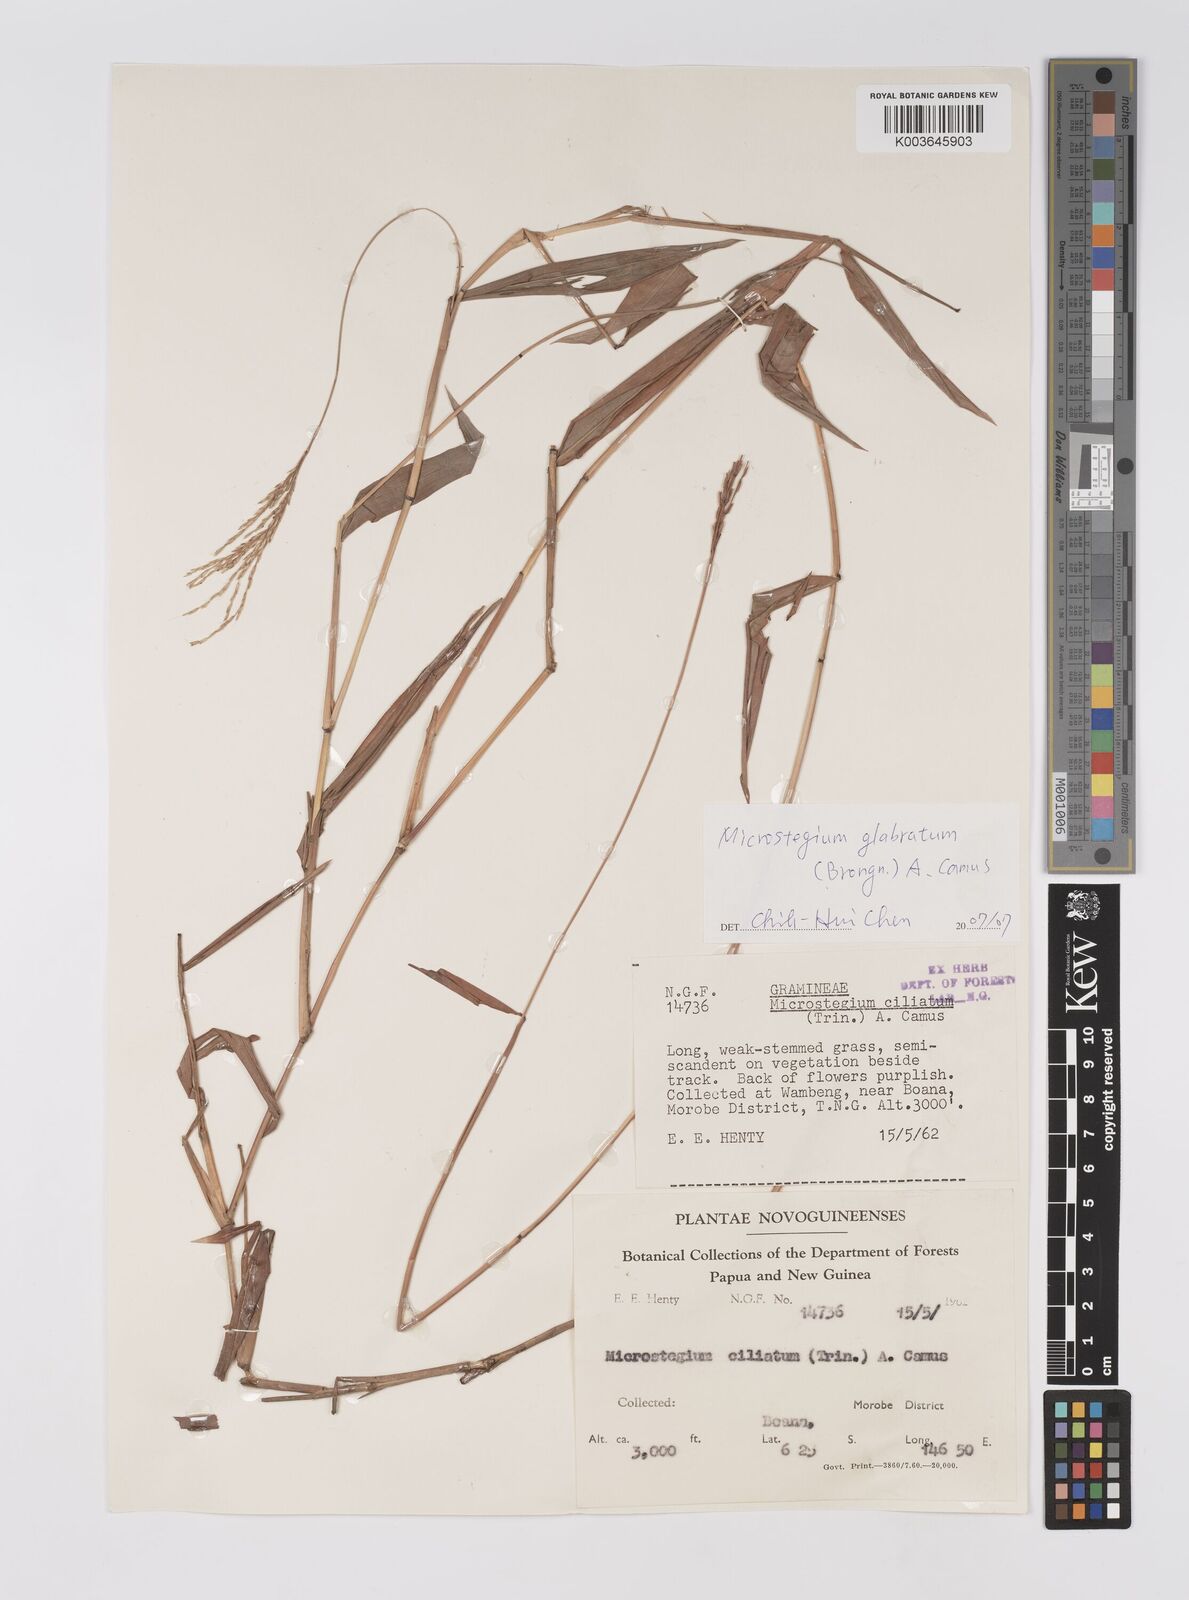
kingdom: Plantae
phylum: Tracheophyta
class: Liliopsida
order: Poales
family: Poaceae
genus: Microstegium
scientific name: Microstegium glabratum
